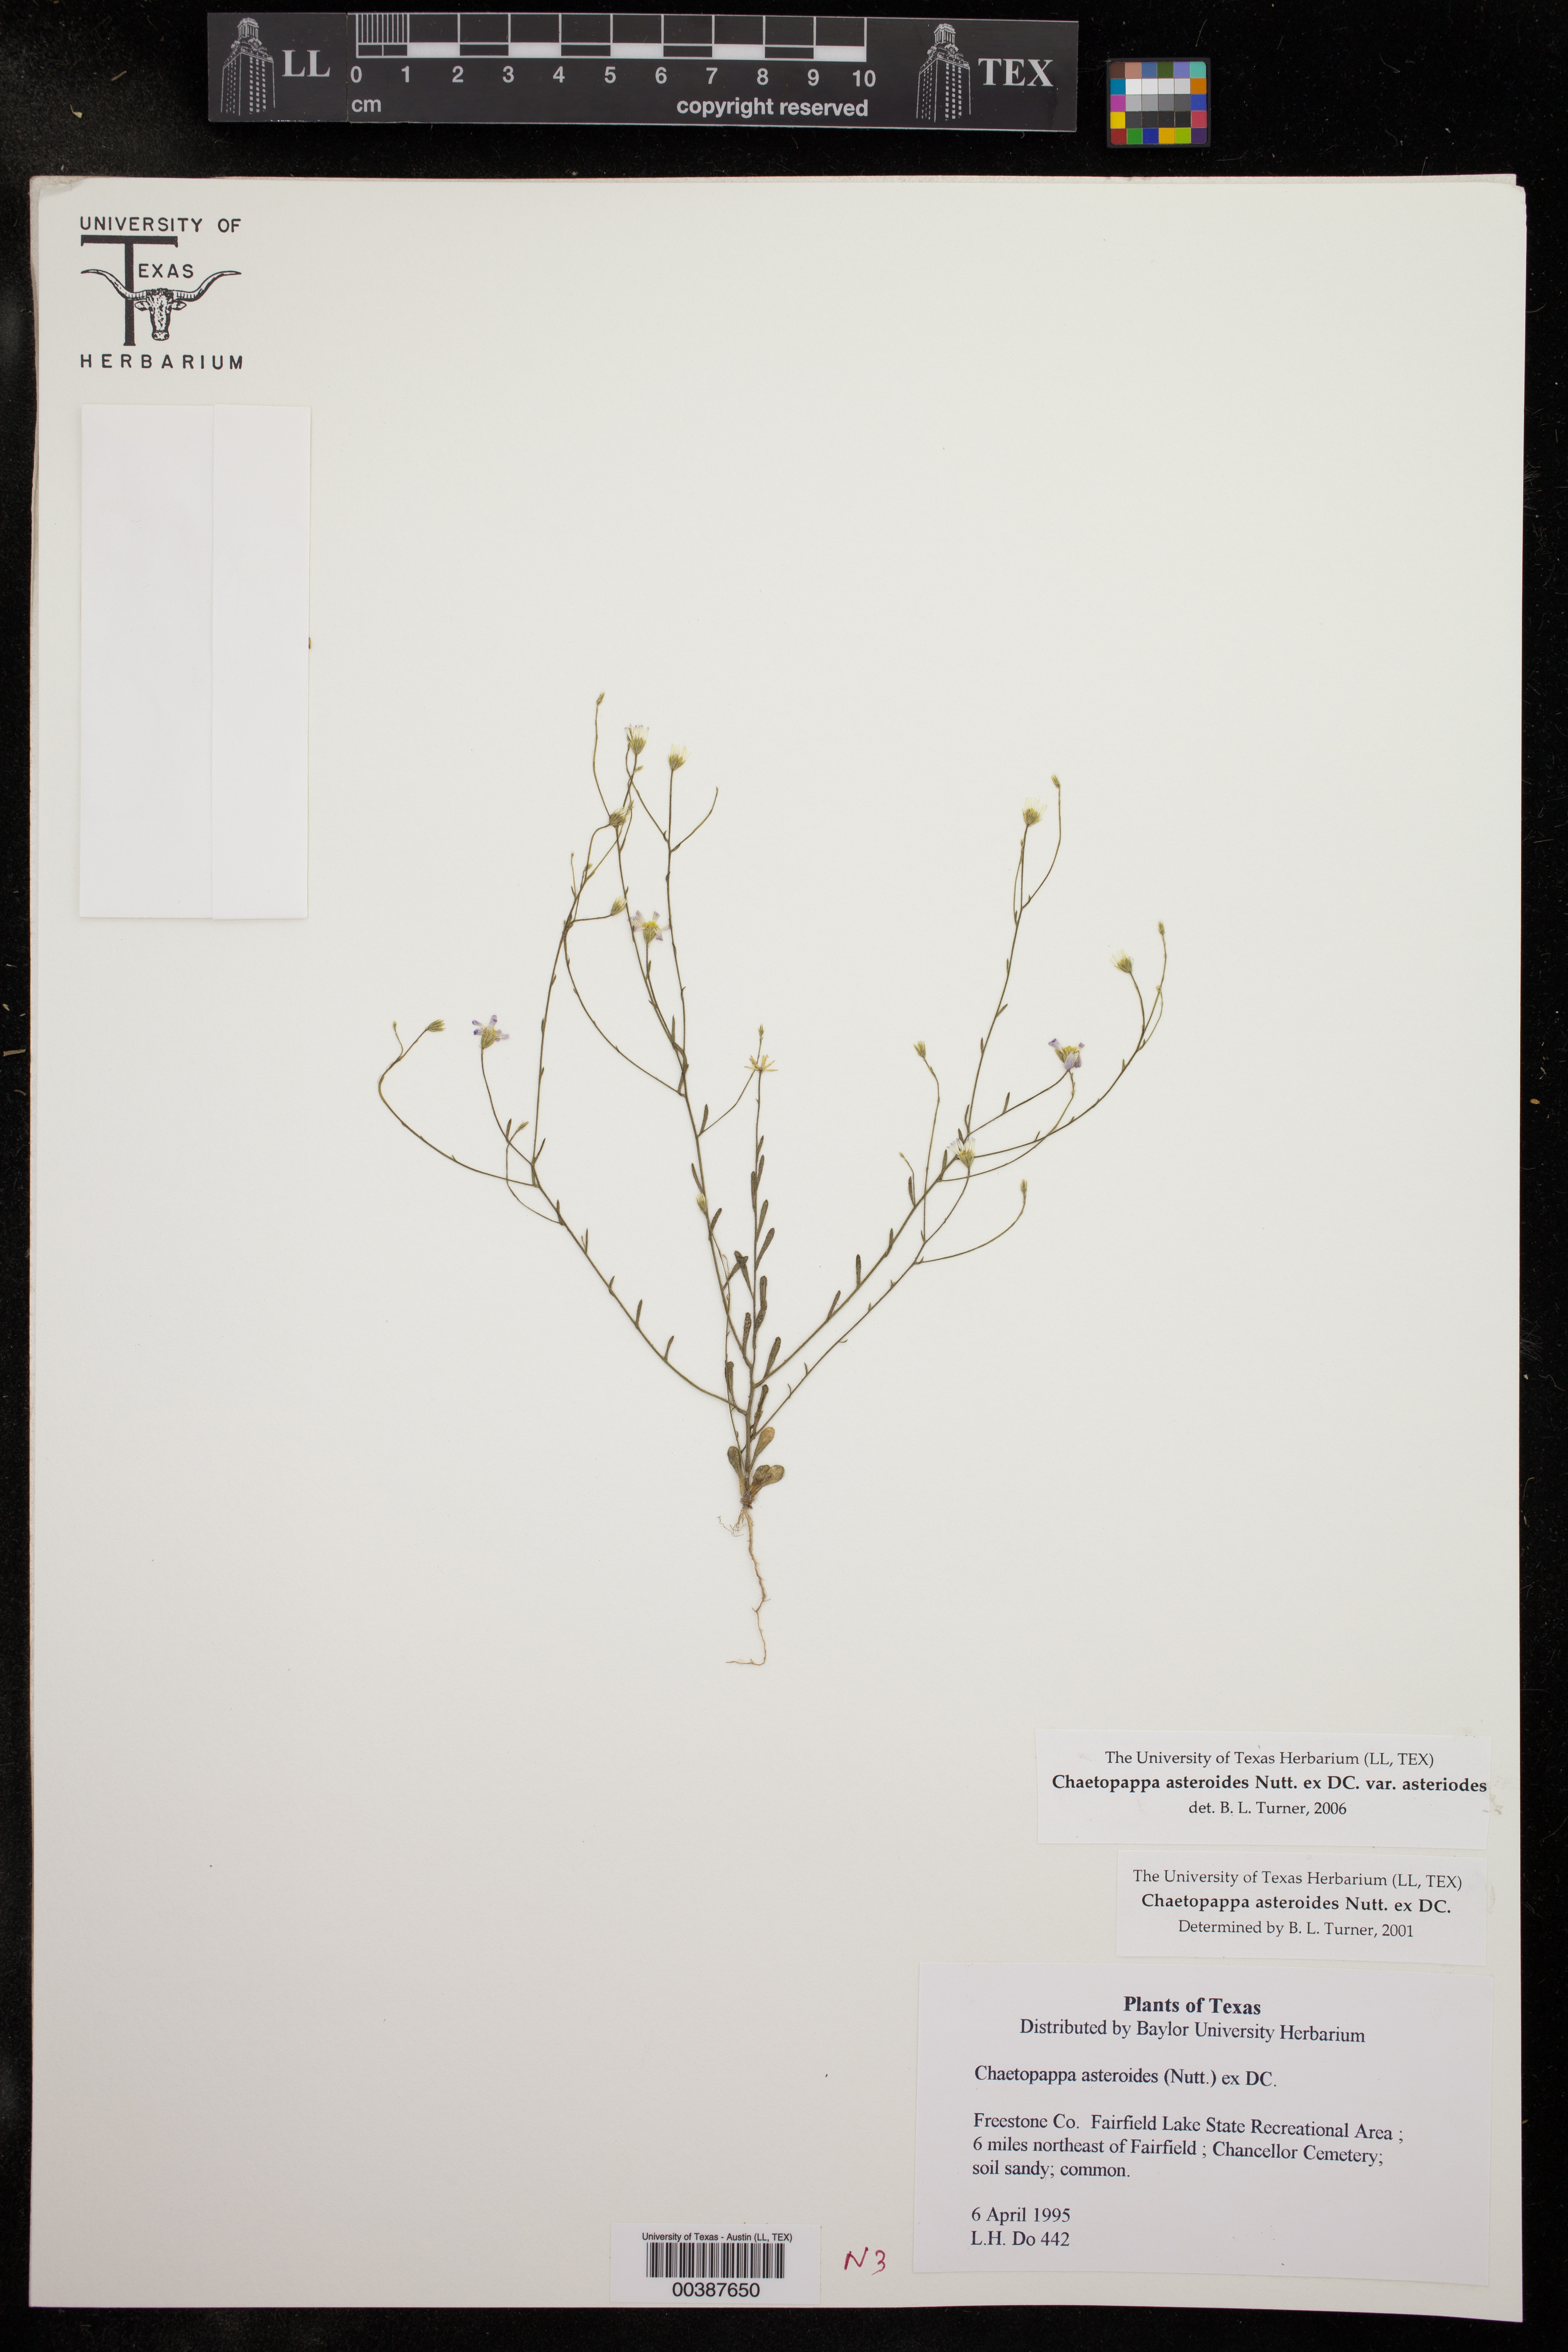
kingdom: Plantae
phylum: Tracheophyta
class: Magnoliopsida
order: Asterales
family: Asteraceae
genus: Chaetopappa
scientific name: Chaetopappa asteroides
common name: Tiny lazy daisy
